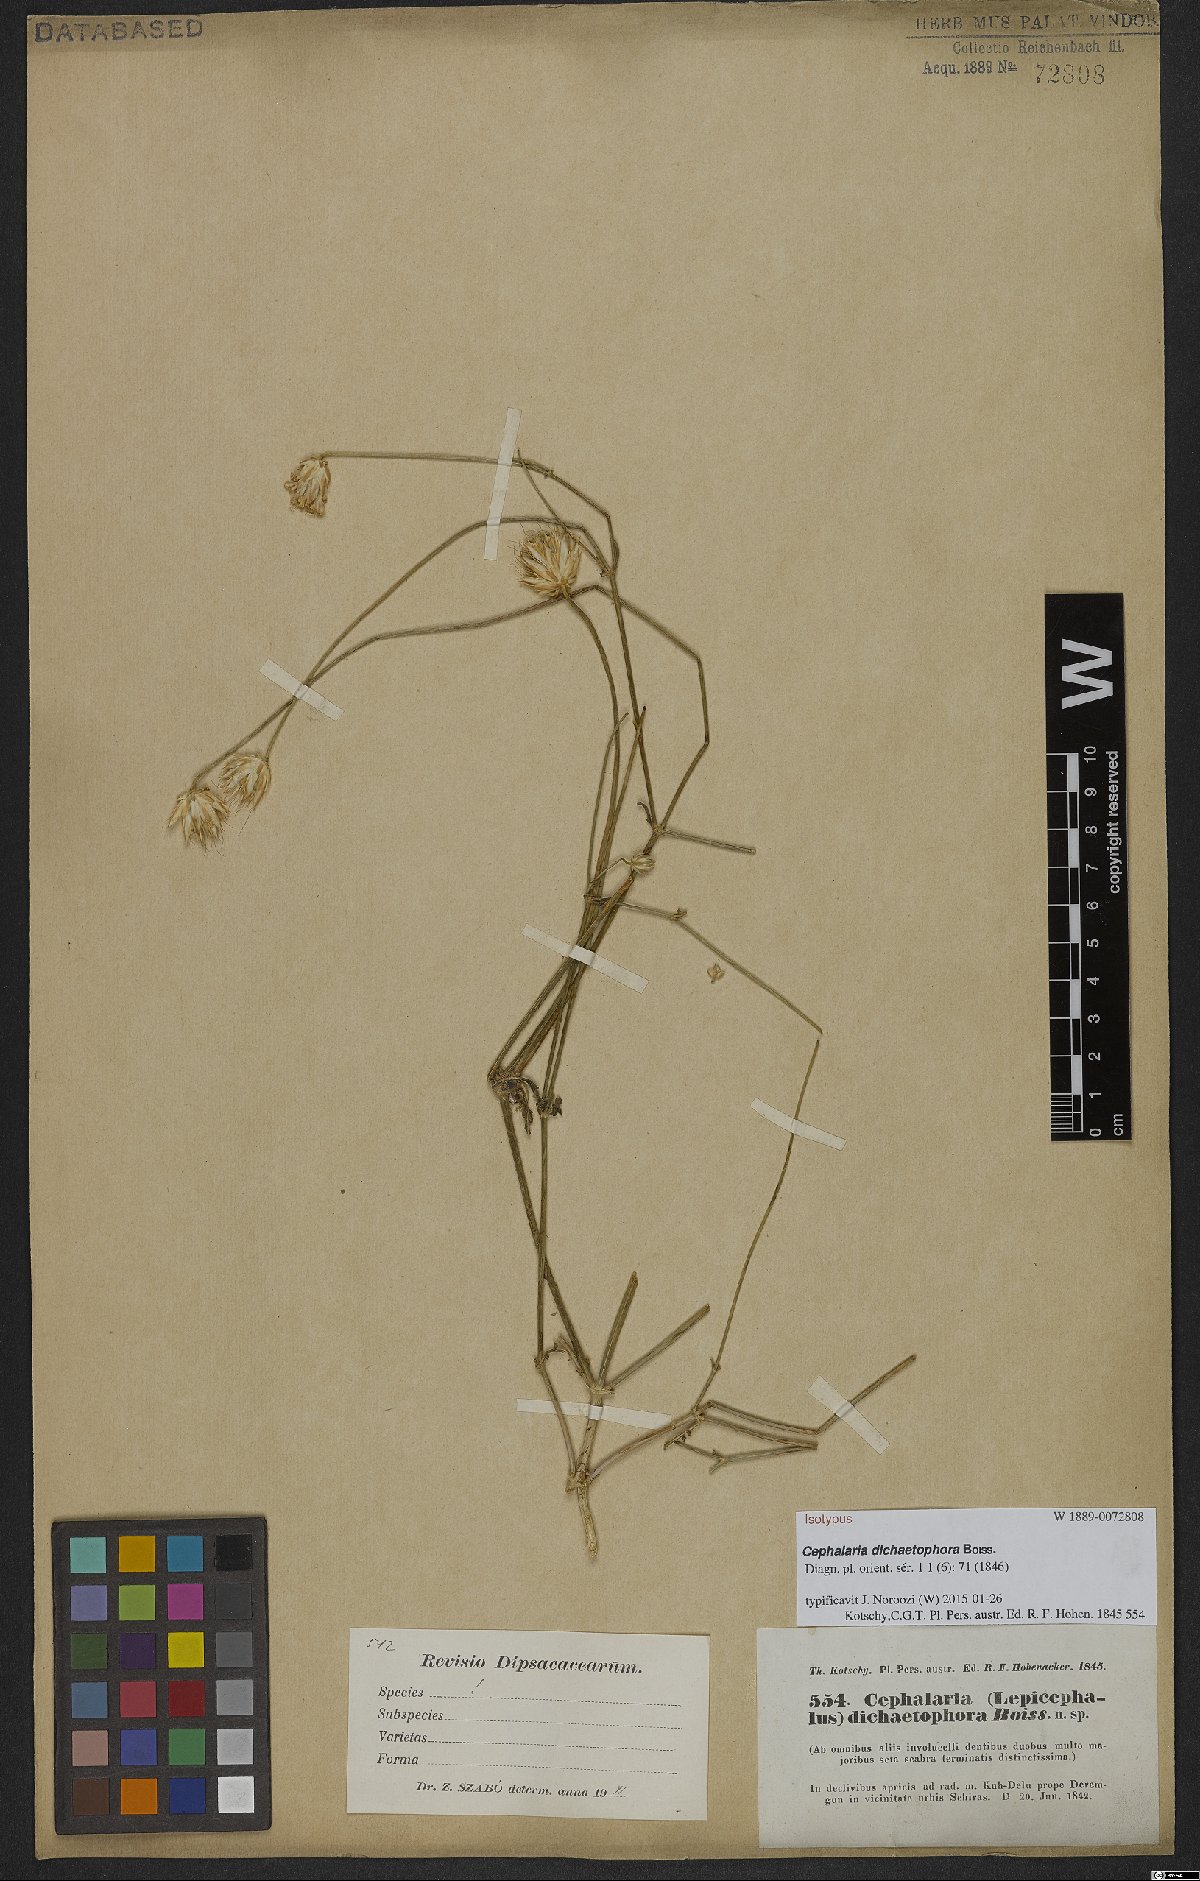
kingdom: Plantae
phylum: Tracheophyta
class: Magnoliopsida
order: Dipsacales
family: Caprifoliaceae
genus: Cephalaria
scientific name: Cephalaria dichaetophora
